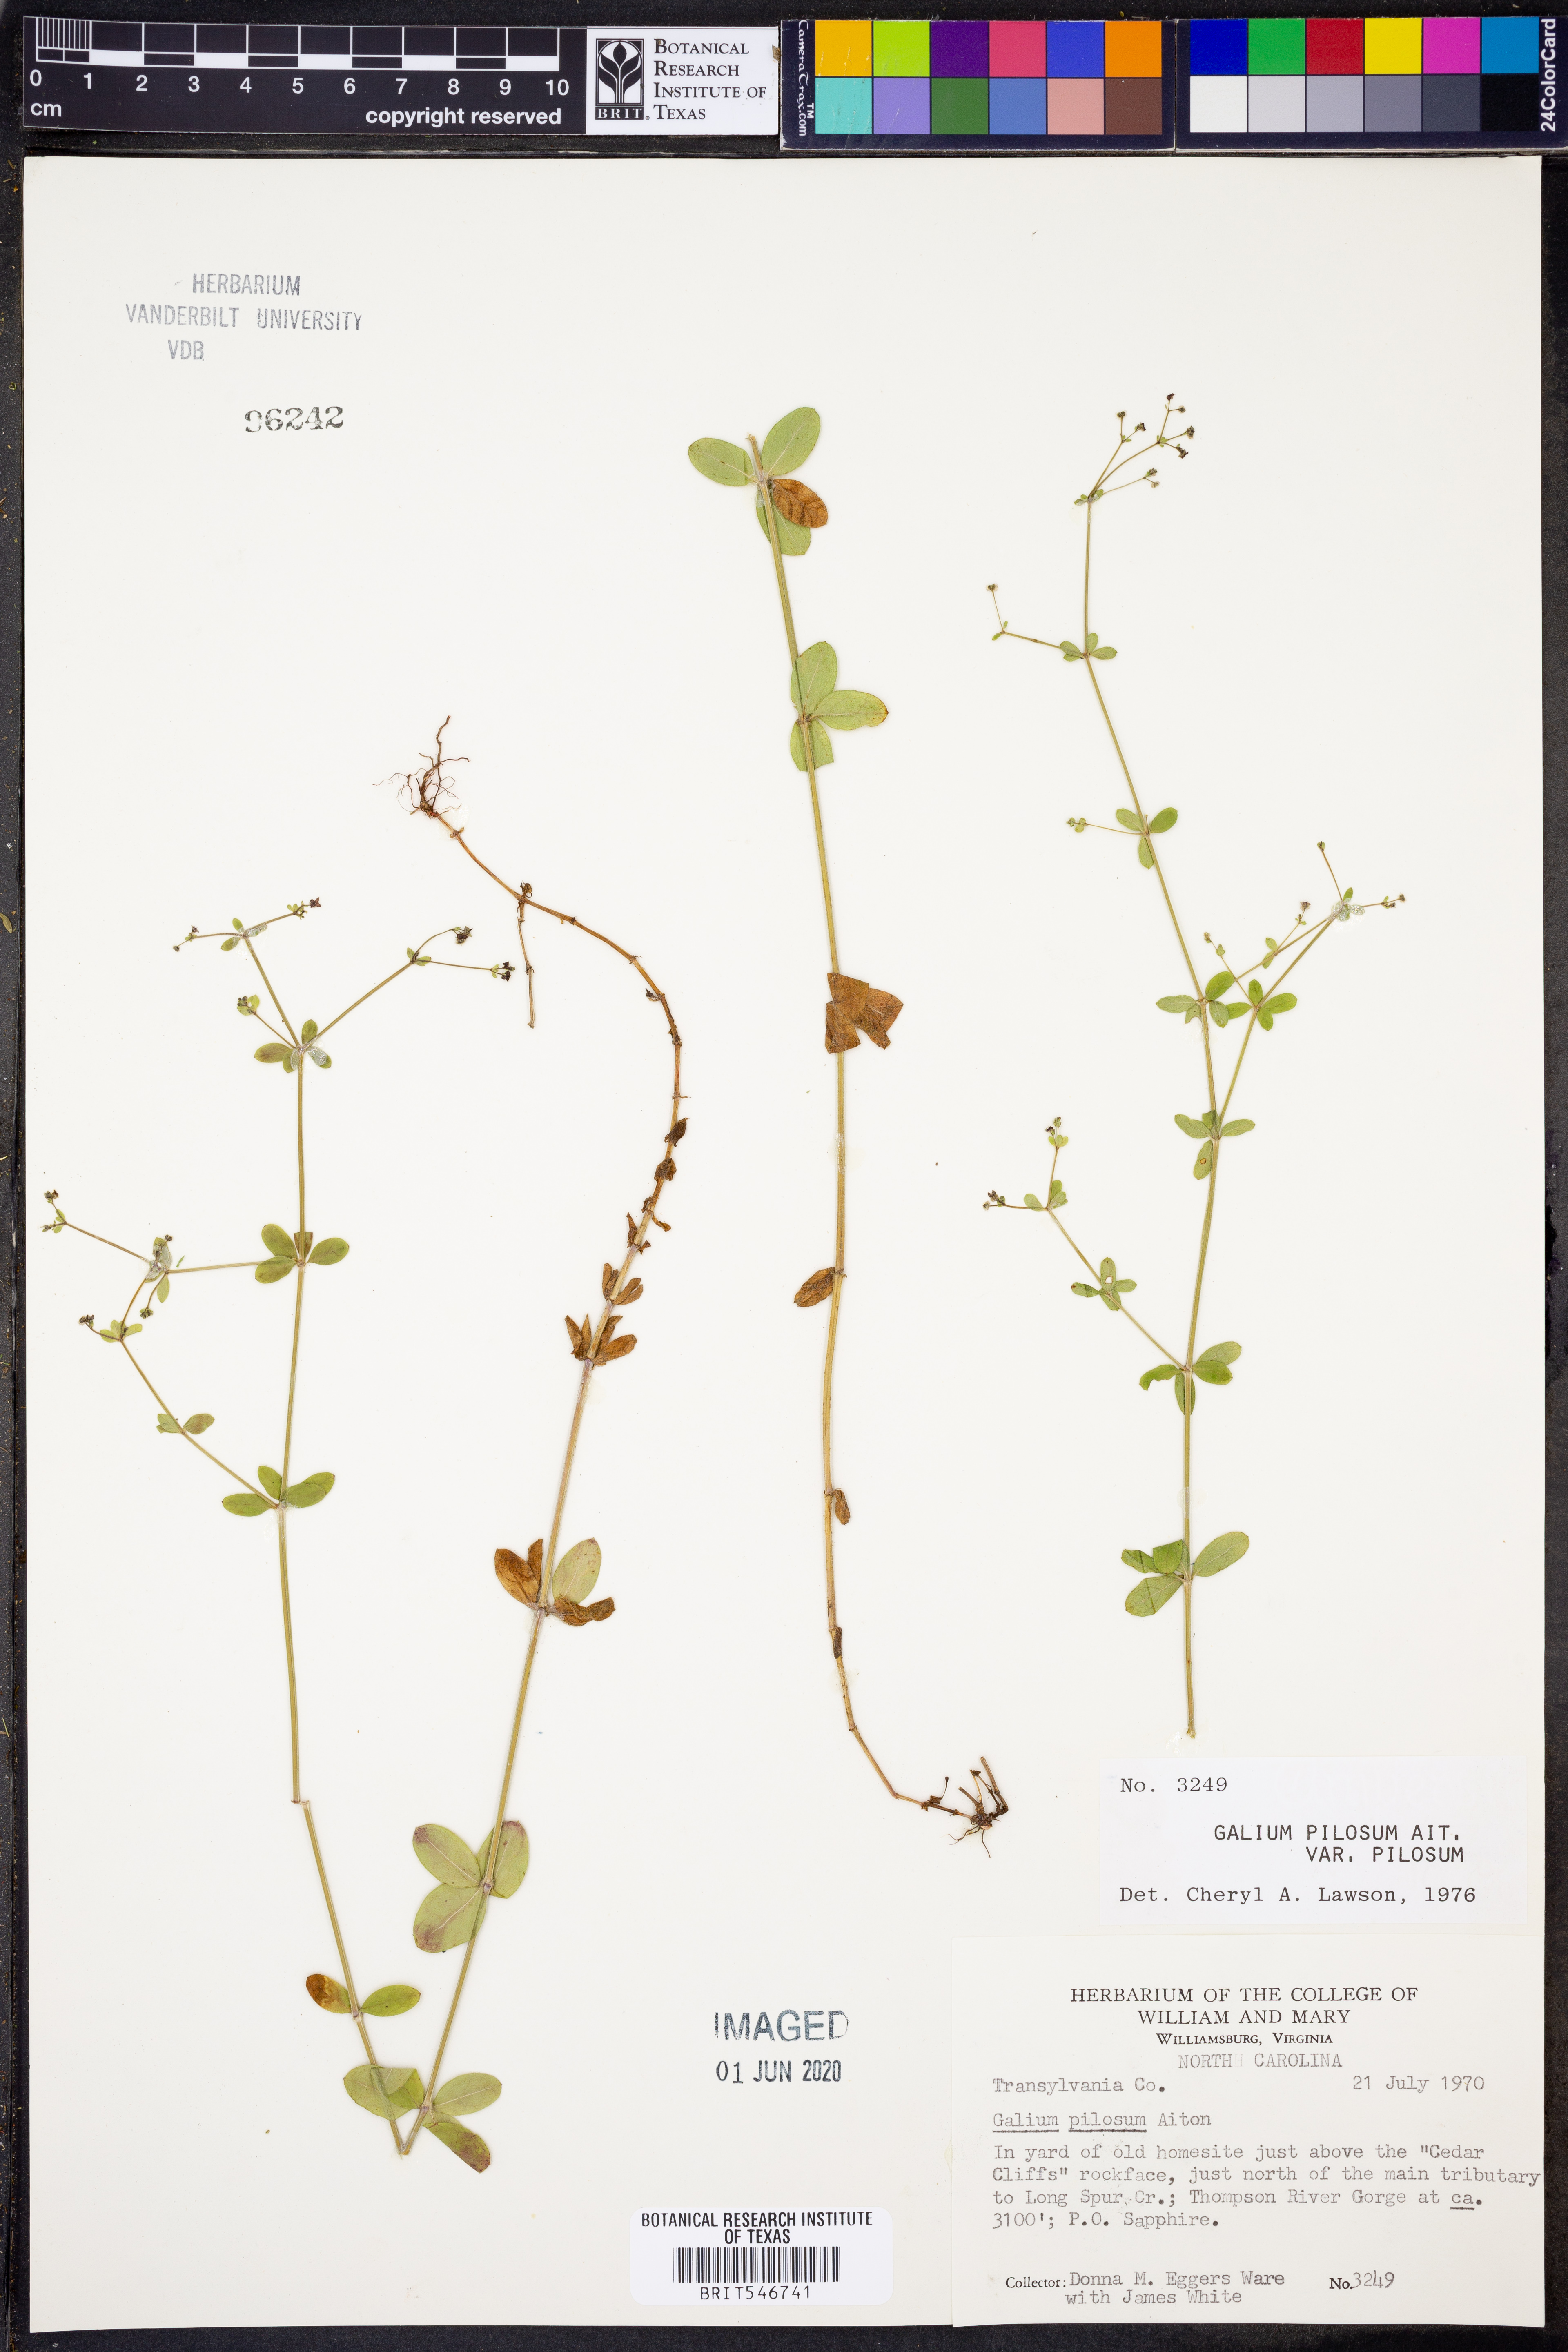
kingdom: Plantae
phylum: Tracheophyta
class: Magnoliopsida
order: Gentianales
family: Rubiaceae
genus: Galium
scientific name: Galium pilosum
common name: Hairy bedstraw
